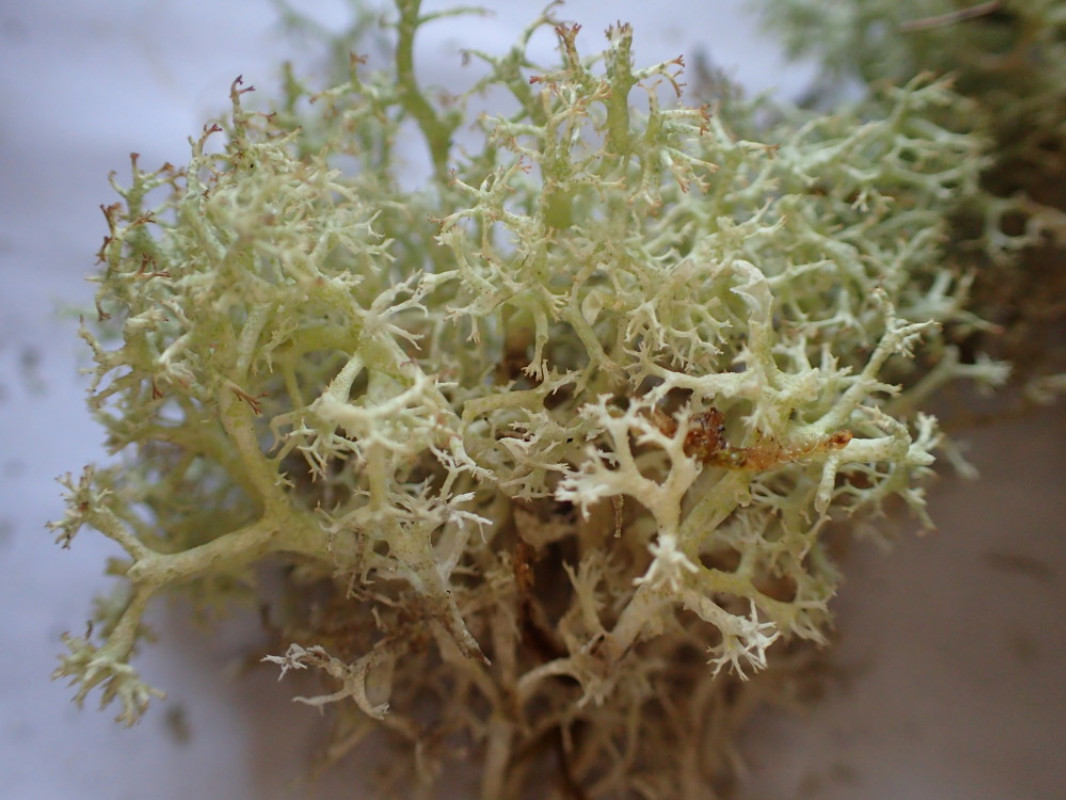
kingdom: Fungi
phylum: Ascomycota
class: Lecanoromycetes
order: Lecanorales
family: Cladoniaceae
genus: Cladonia
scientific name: Cladonia portentosa
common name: hede-rensdyrlav
